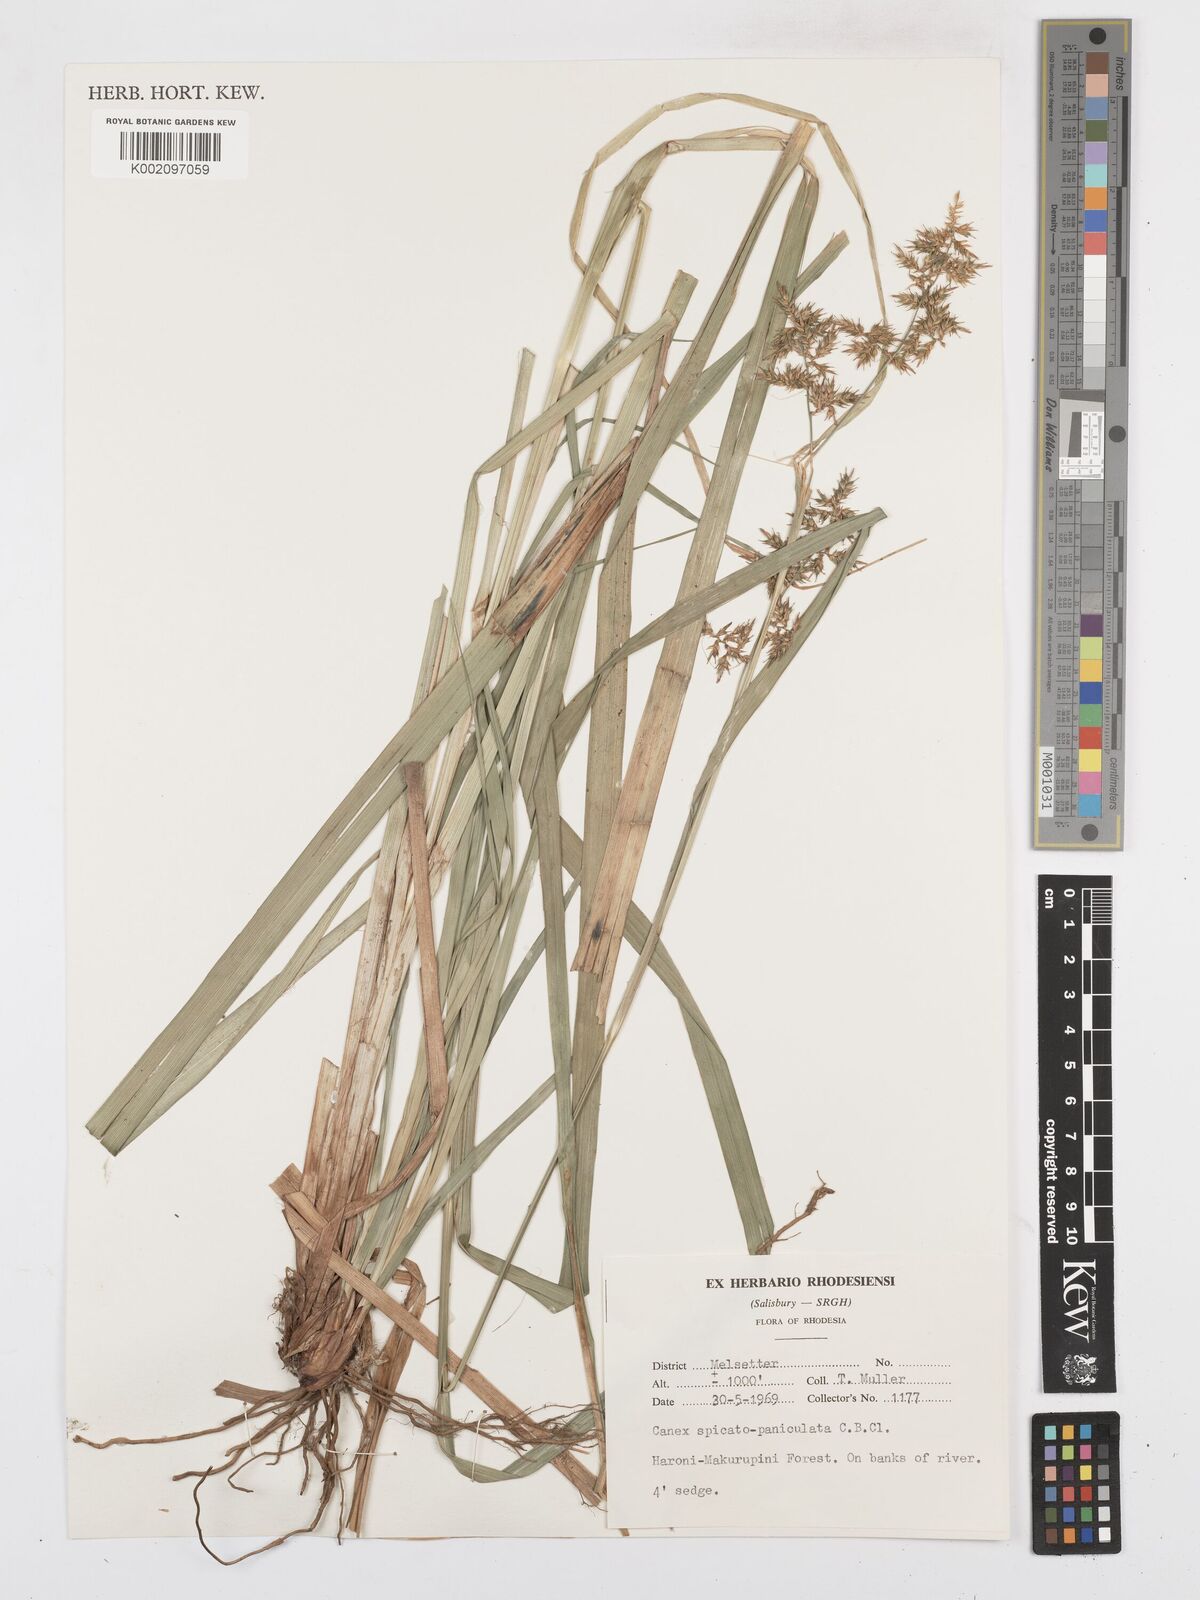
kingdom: Plantae
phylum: Tracheophyta
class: Liliopsida
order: Poales
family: Cyperaceae
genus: Carex
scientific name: Carex spicatopaniculata
